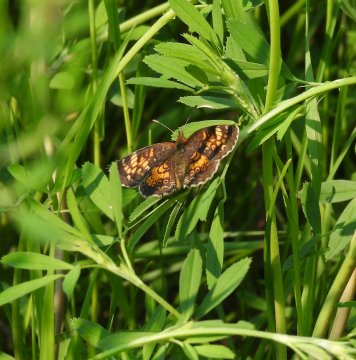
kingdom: Animalia
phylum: Arthropoda
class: Insecta
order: Lepidoptera
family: Nymphalidae
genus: Phyciodes
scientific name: Phyciodes batesii
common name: Tawny Crescent
